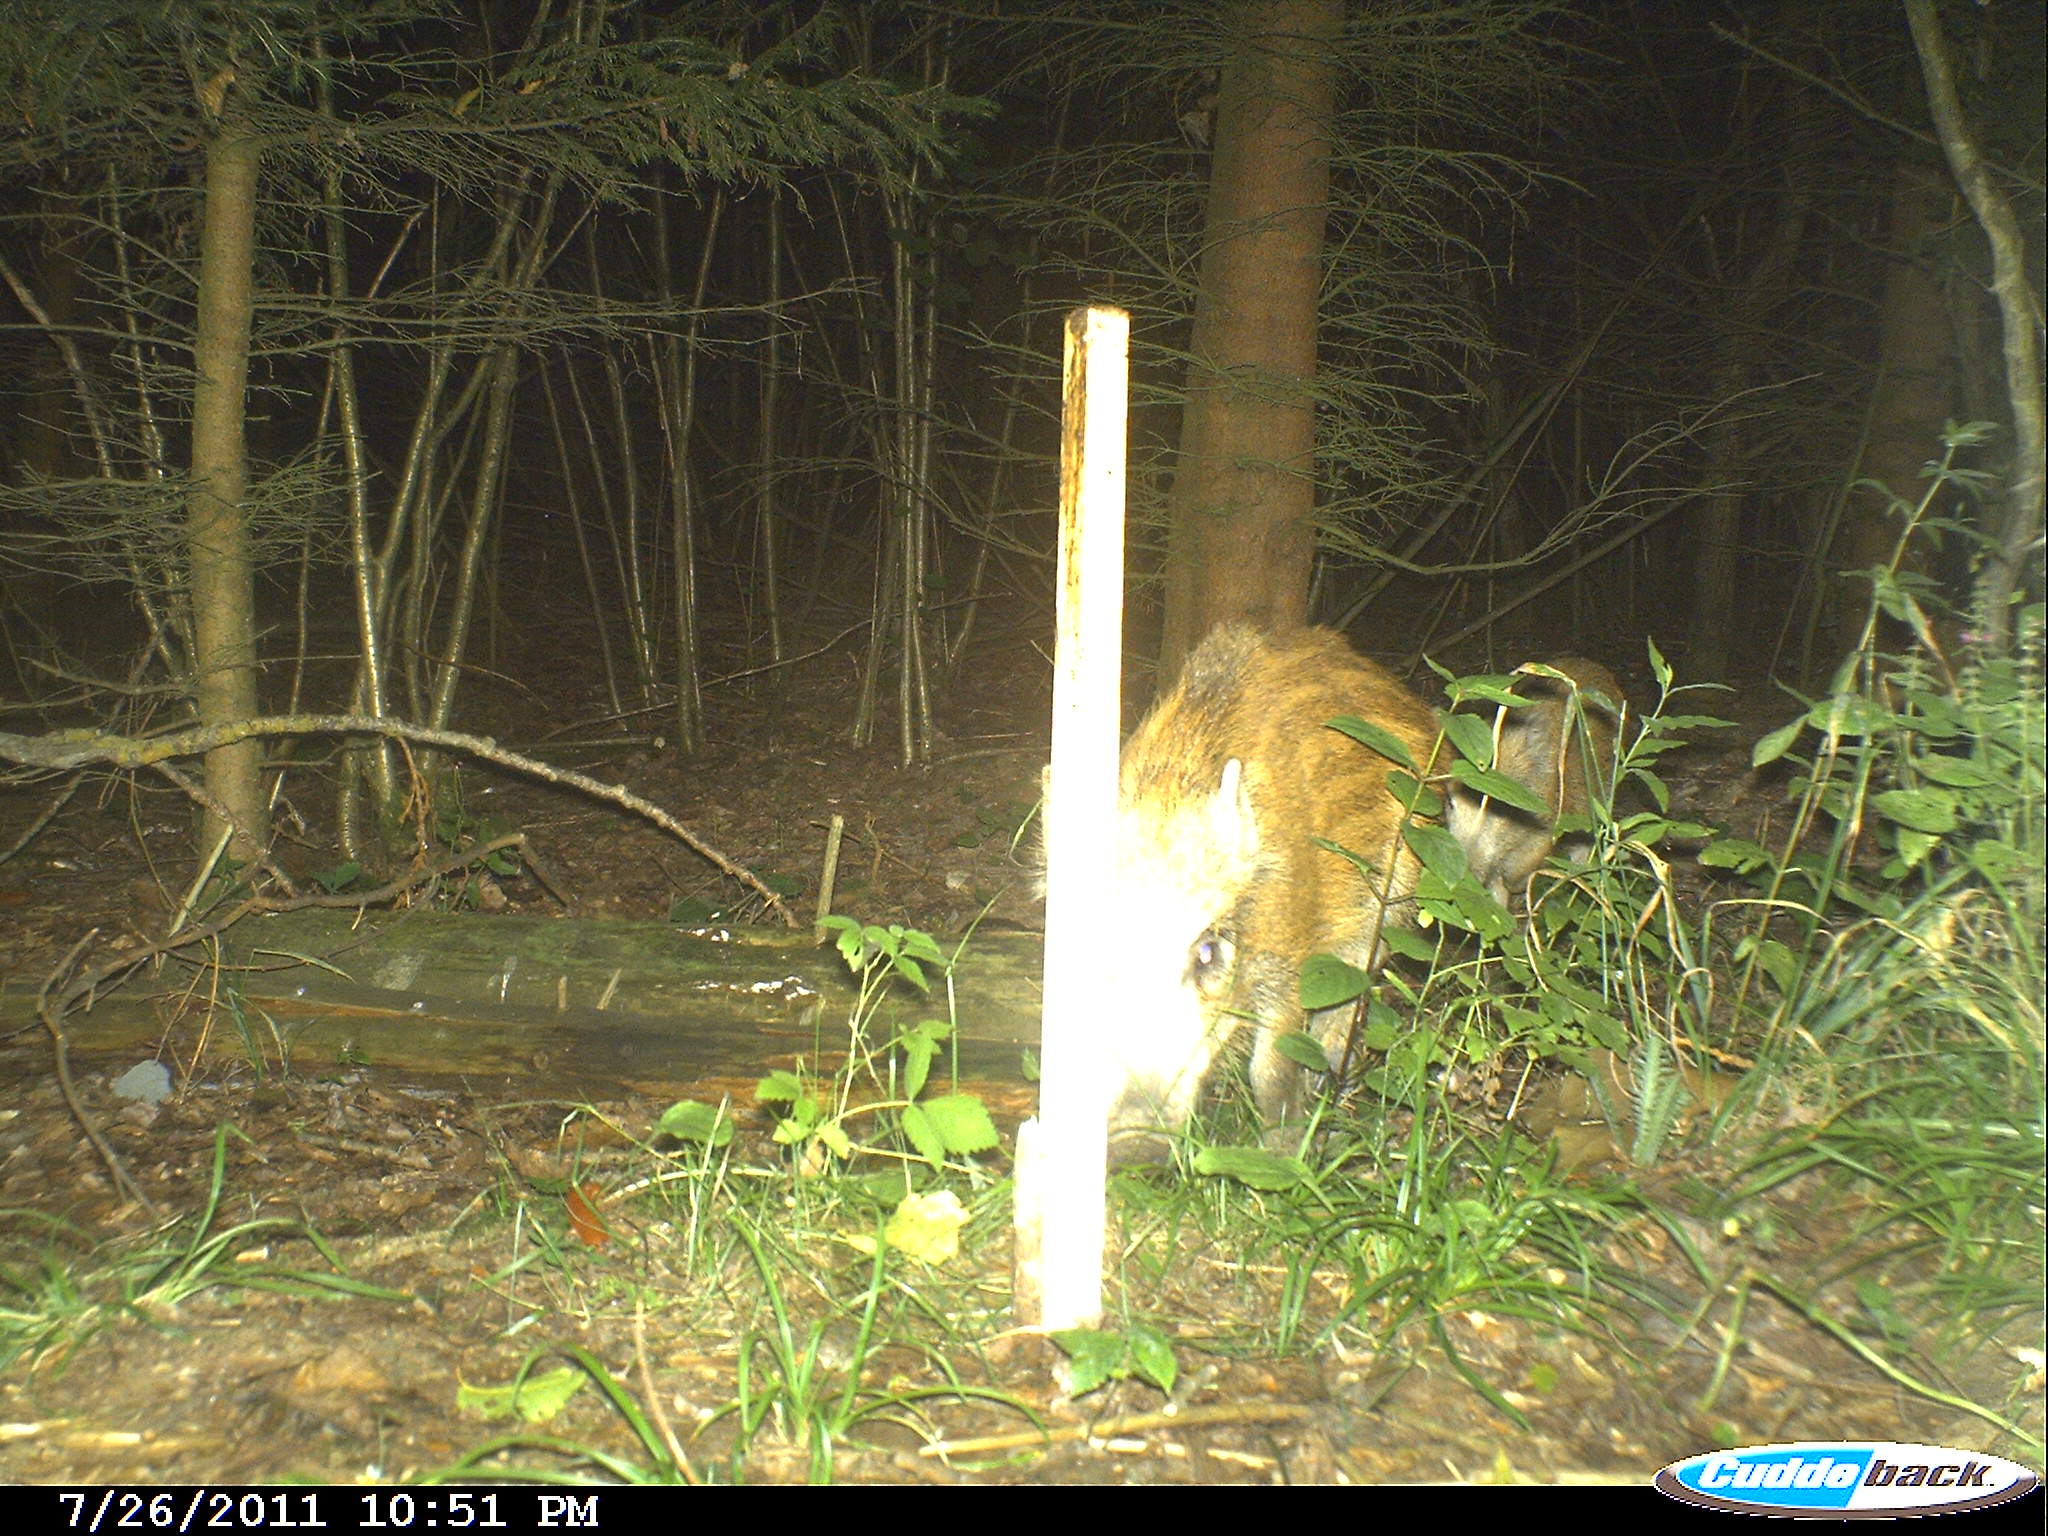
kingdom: Animalia
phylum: Chordata
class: Mammalia
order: Artiodactyla
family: Suidae
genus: Sus
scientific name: Sus scrofa
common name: Wild boar
